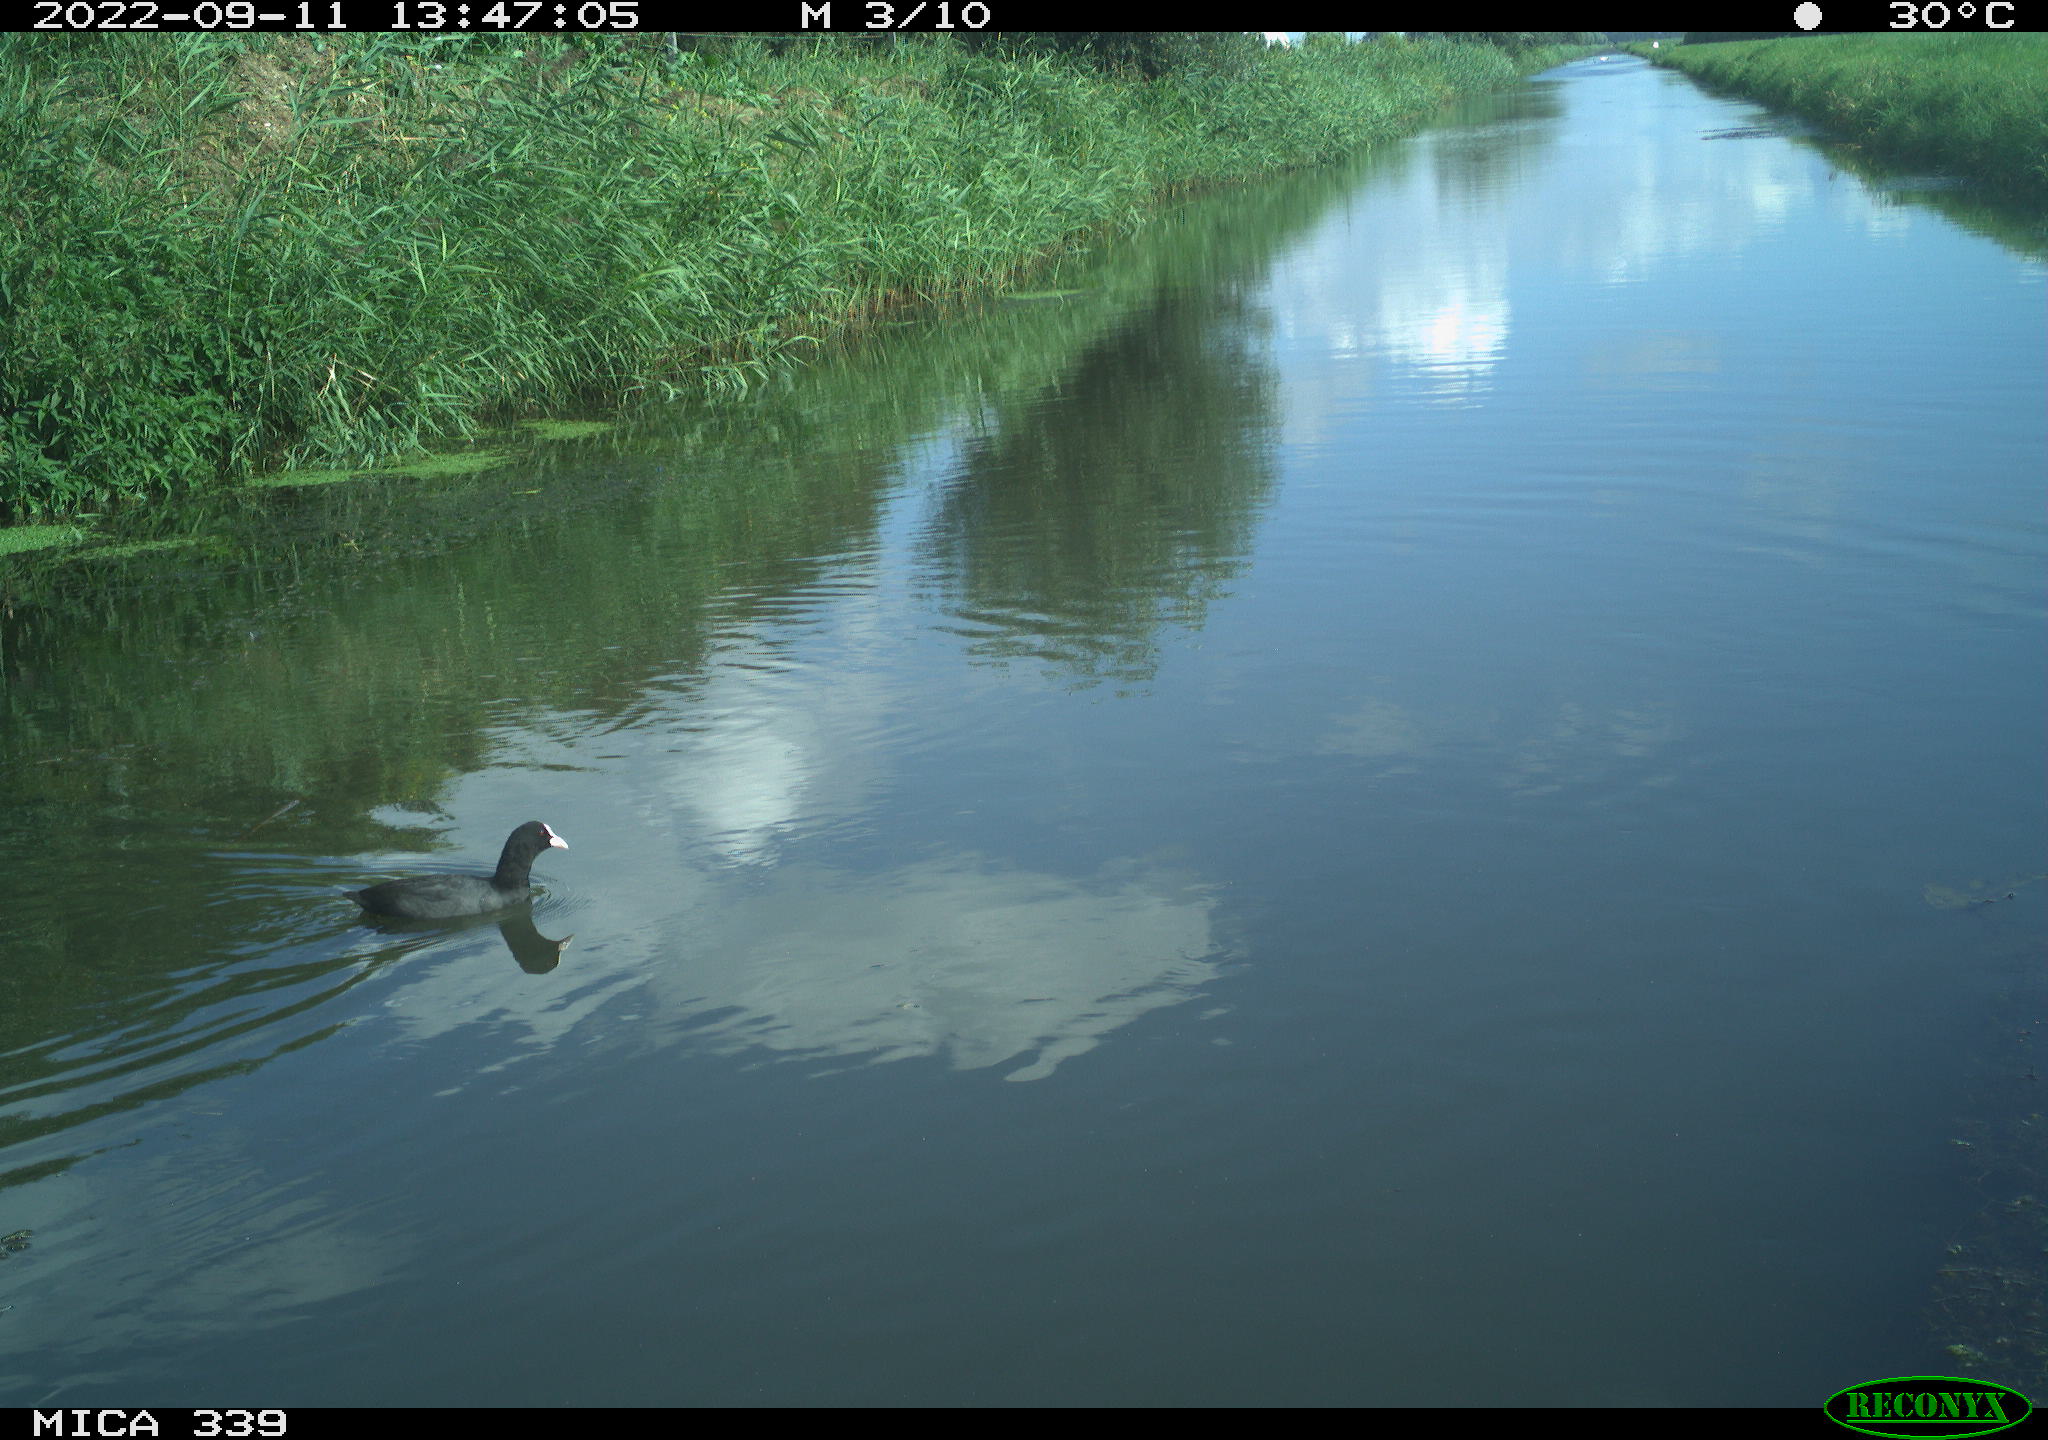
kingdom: Animalia
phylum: Chordata
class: Aves
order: Anseriformes
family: Anatidae
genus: Anas
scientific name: Anas
